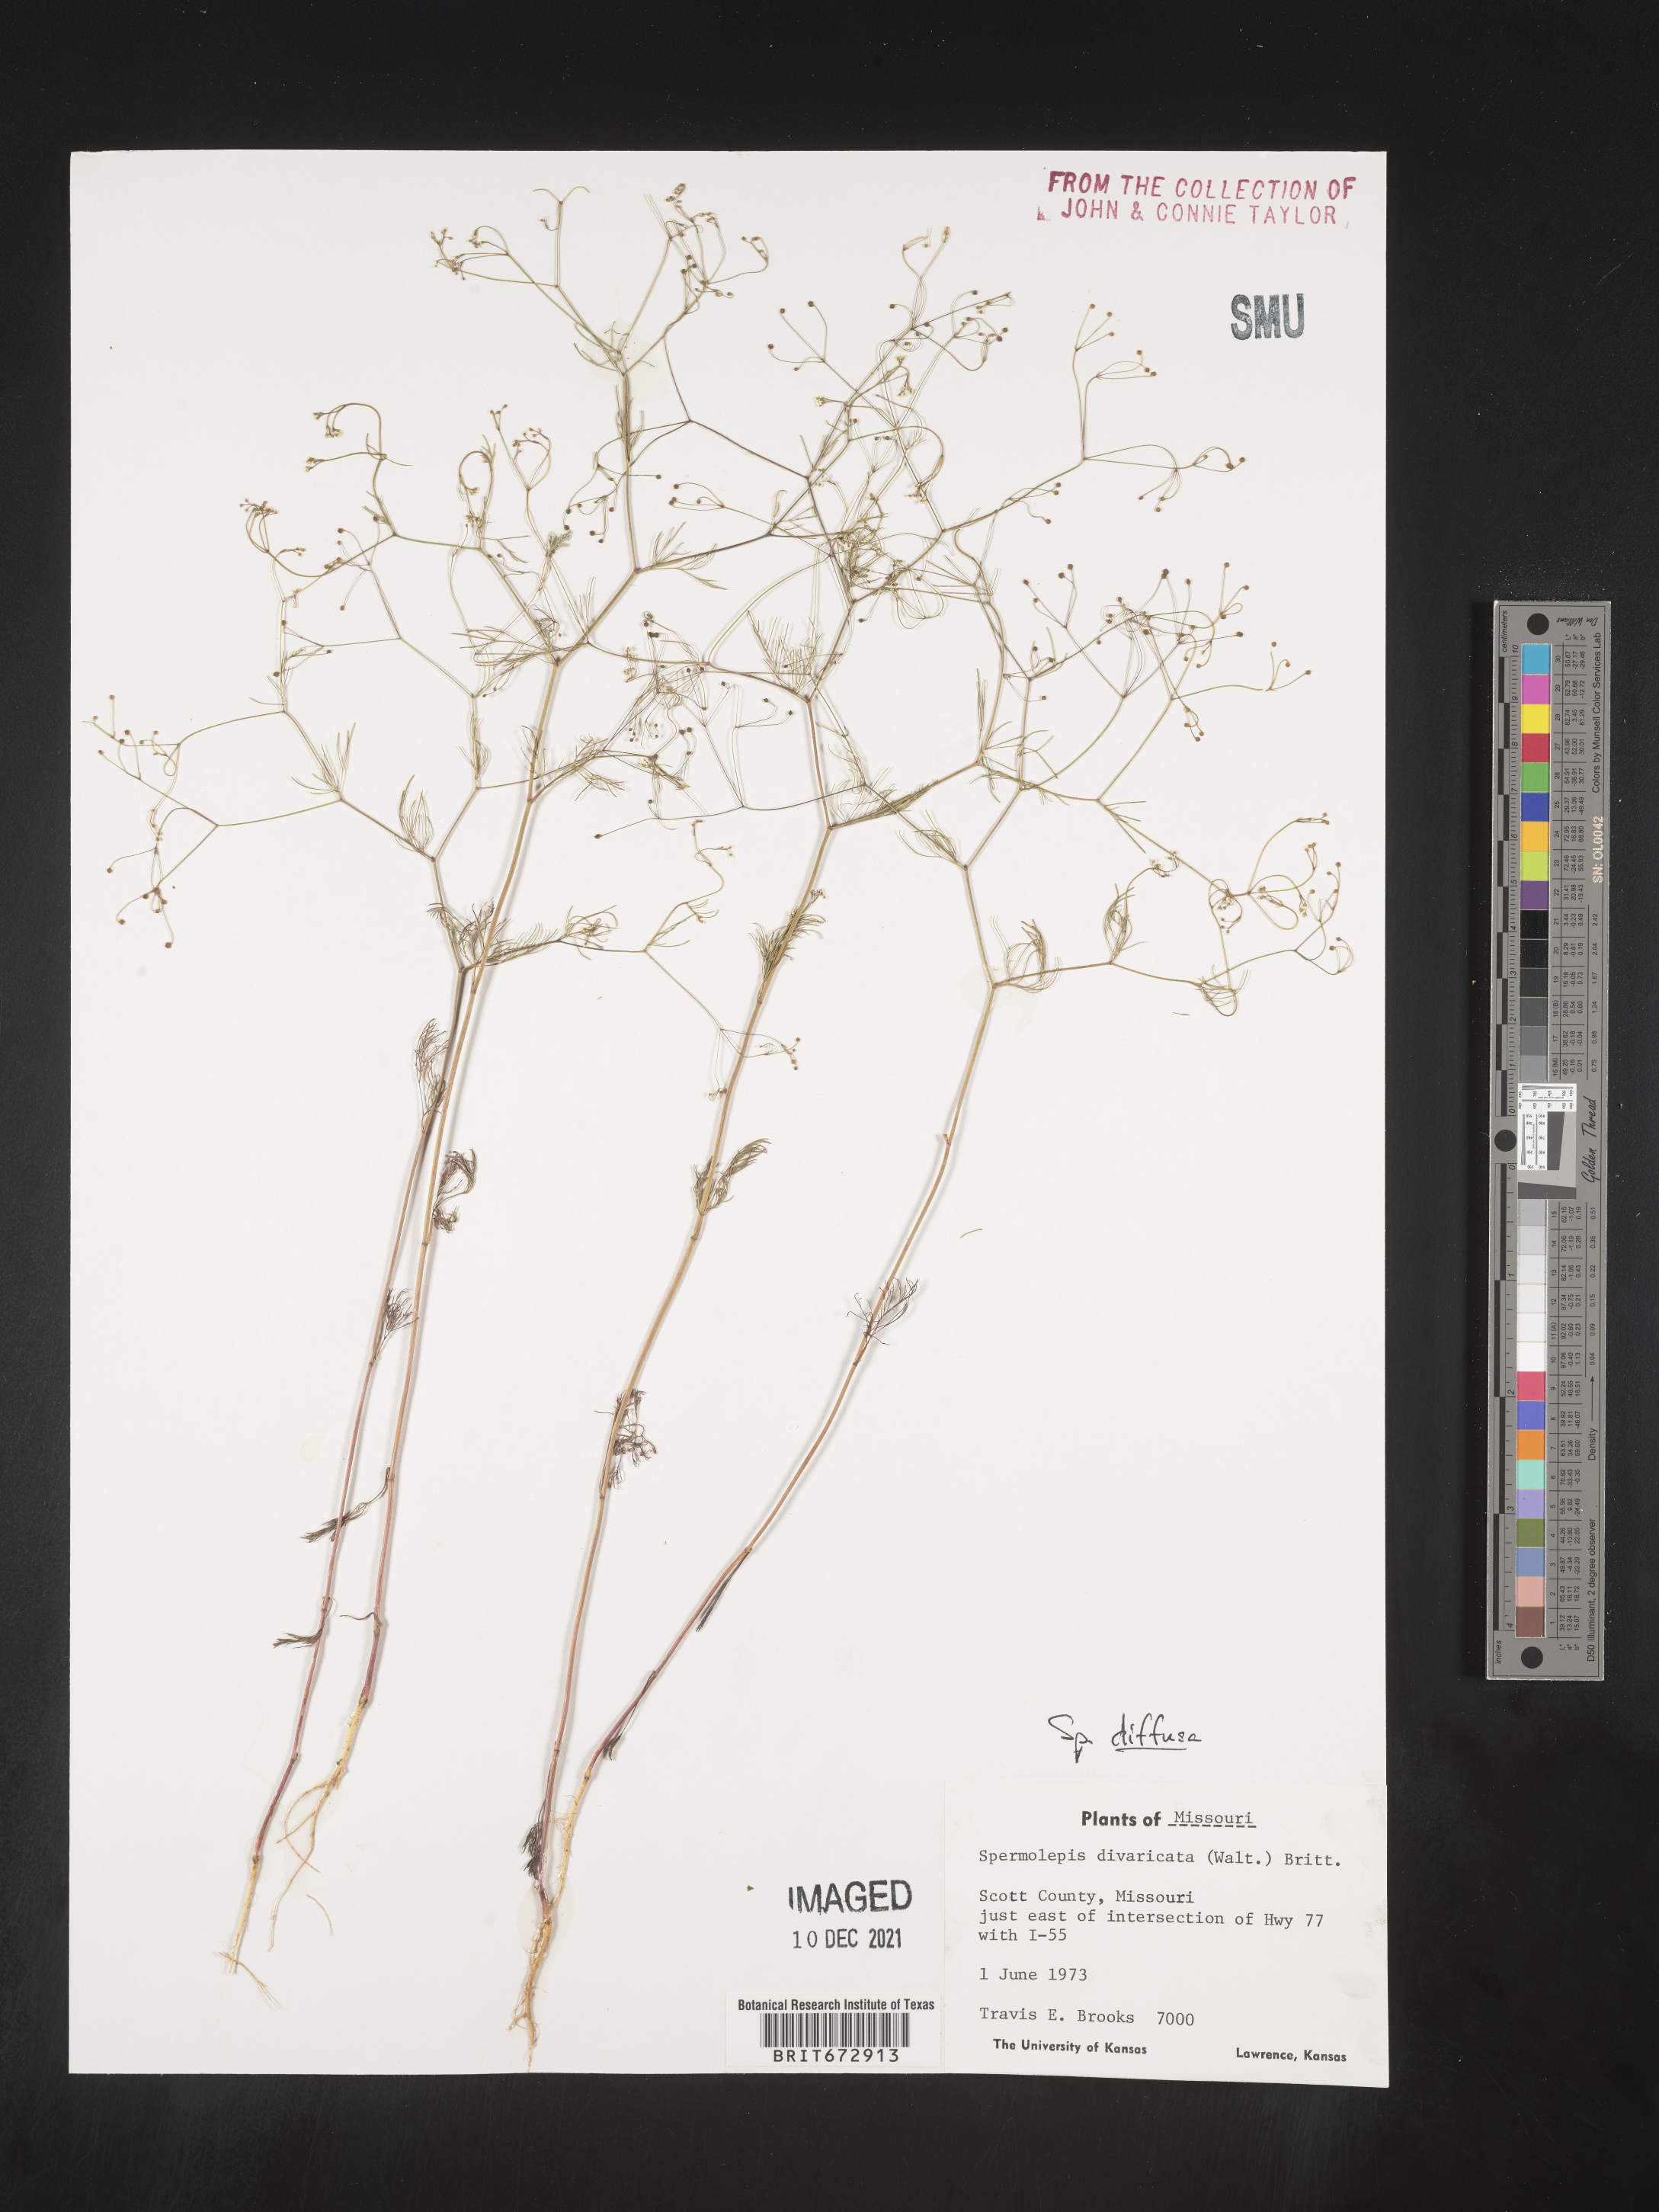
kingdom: Plantae
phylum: Tracheophyta
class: Magnoliopsida
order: Apiales
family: Apiaceae
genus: Spermolepis
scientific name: Spermolepis diffusa
